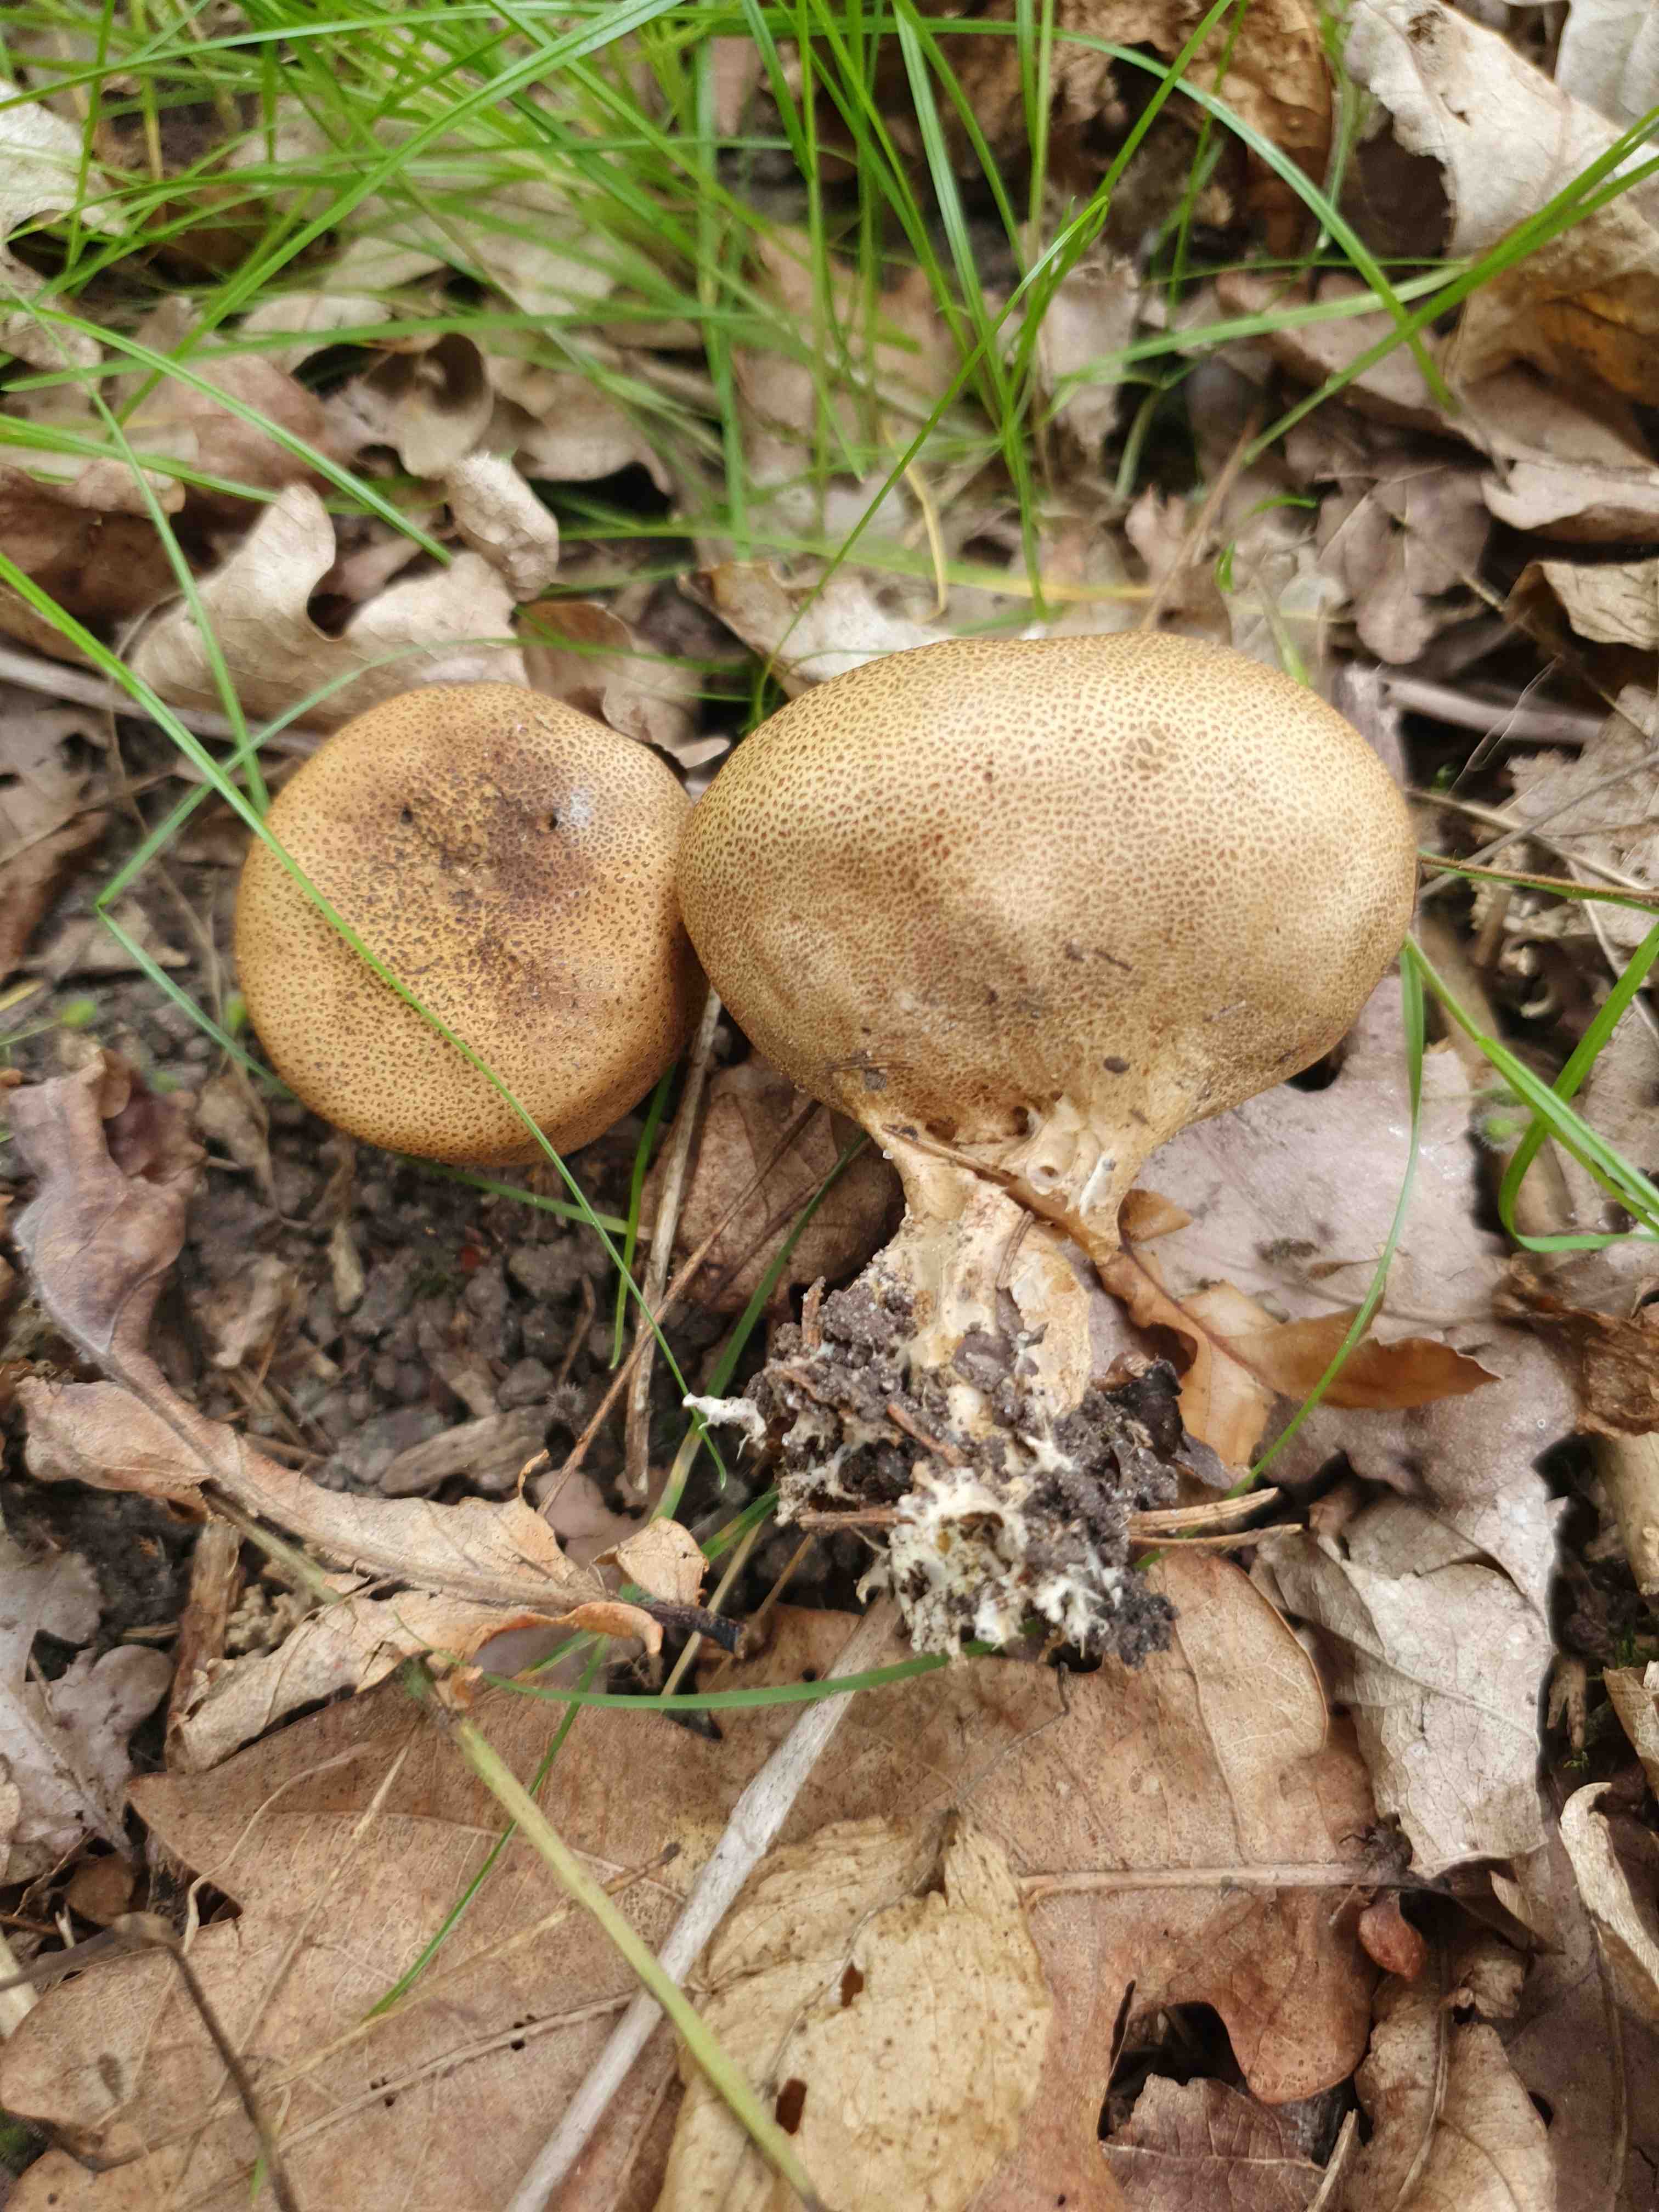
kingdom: Fungi
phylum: Basidiomycota
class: Agaricomycetes
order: Boletales
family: Sclerodermataceae
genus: Scleroderma
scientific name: Scleroderma verrucosum
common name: stilket bruskbold
